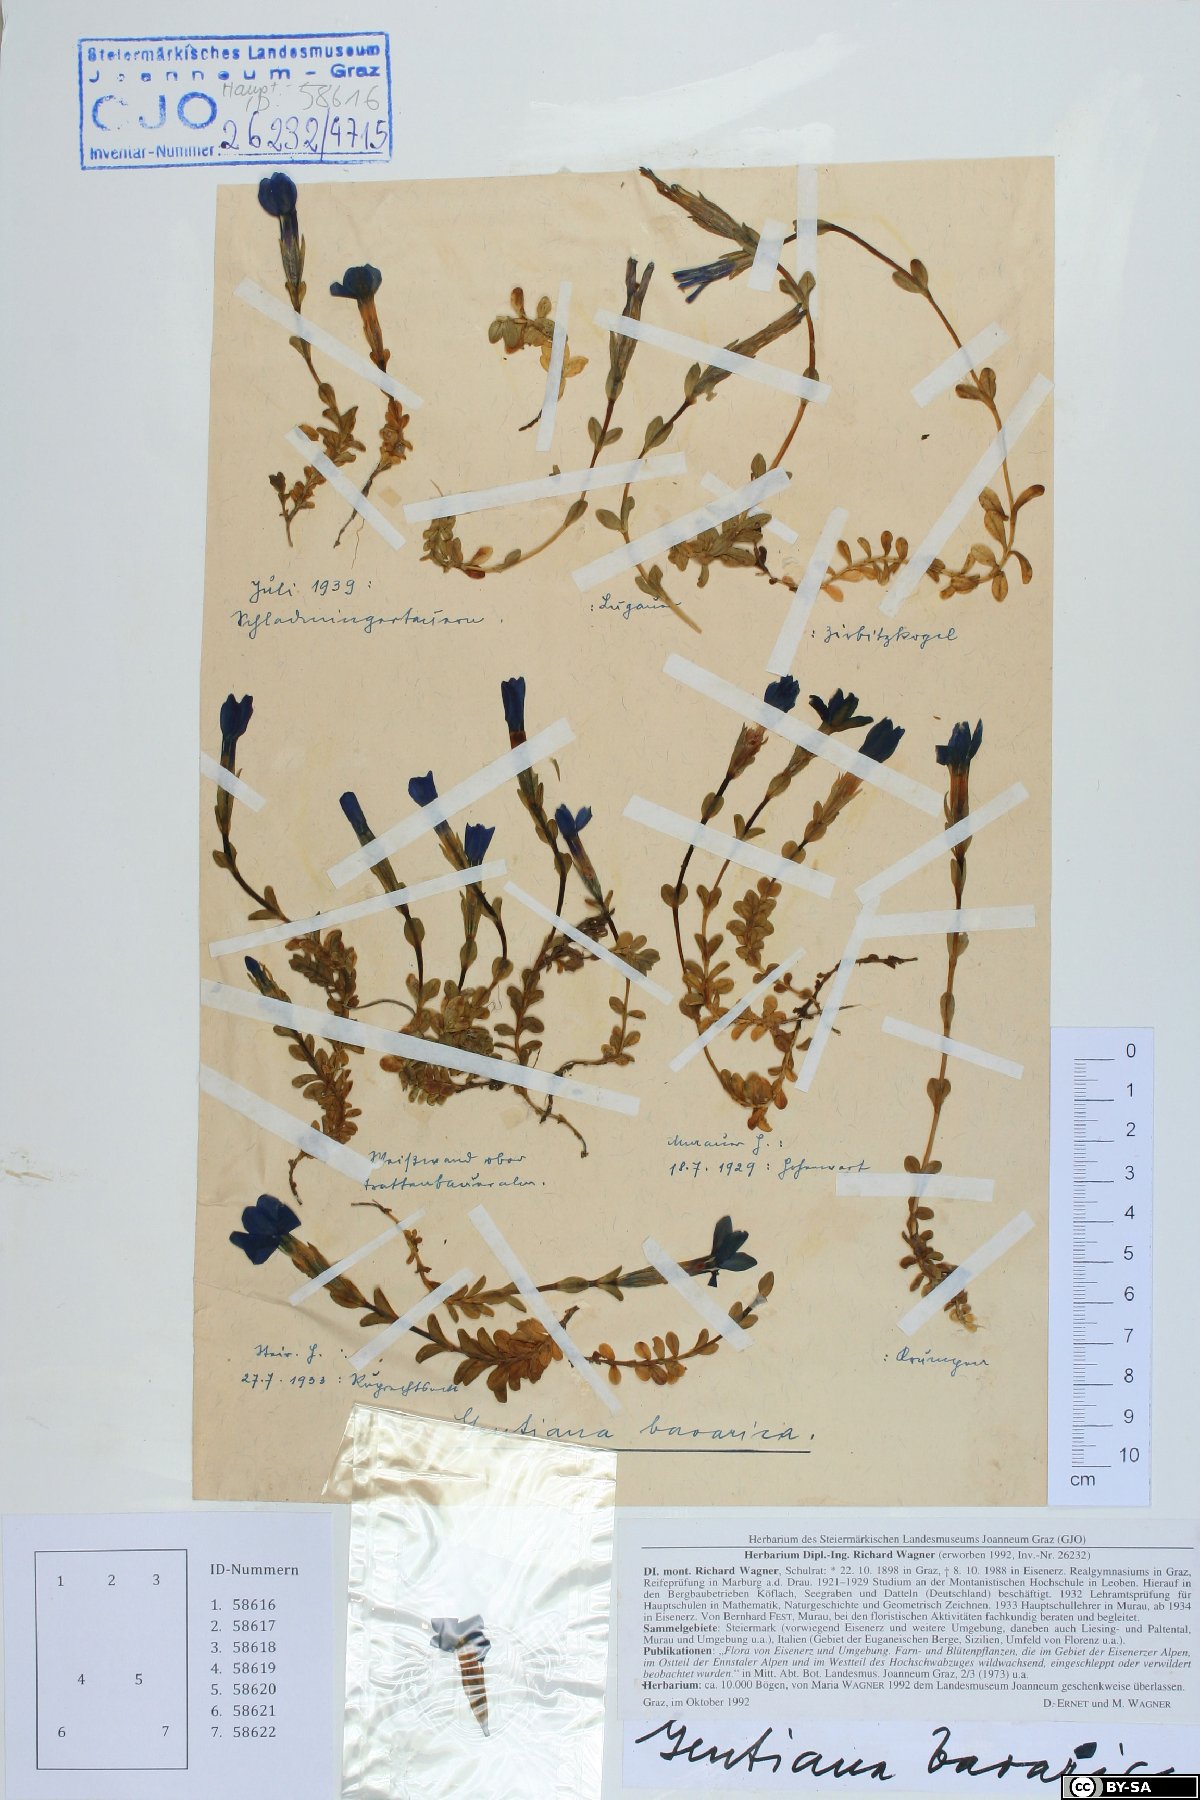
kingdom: Plantae
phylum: Tracheophyta
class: Magnoliopsida
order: Gentianales
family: Gentianaceae
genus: Gentiana
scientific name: Gentiana bavarica
